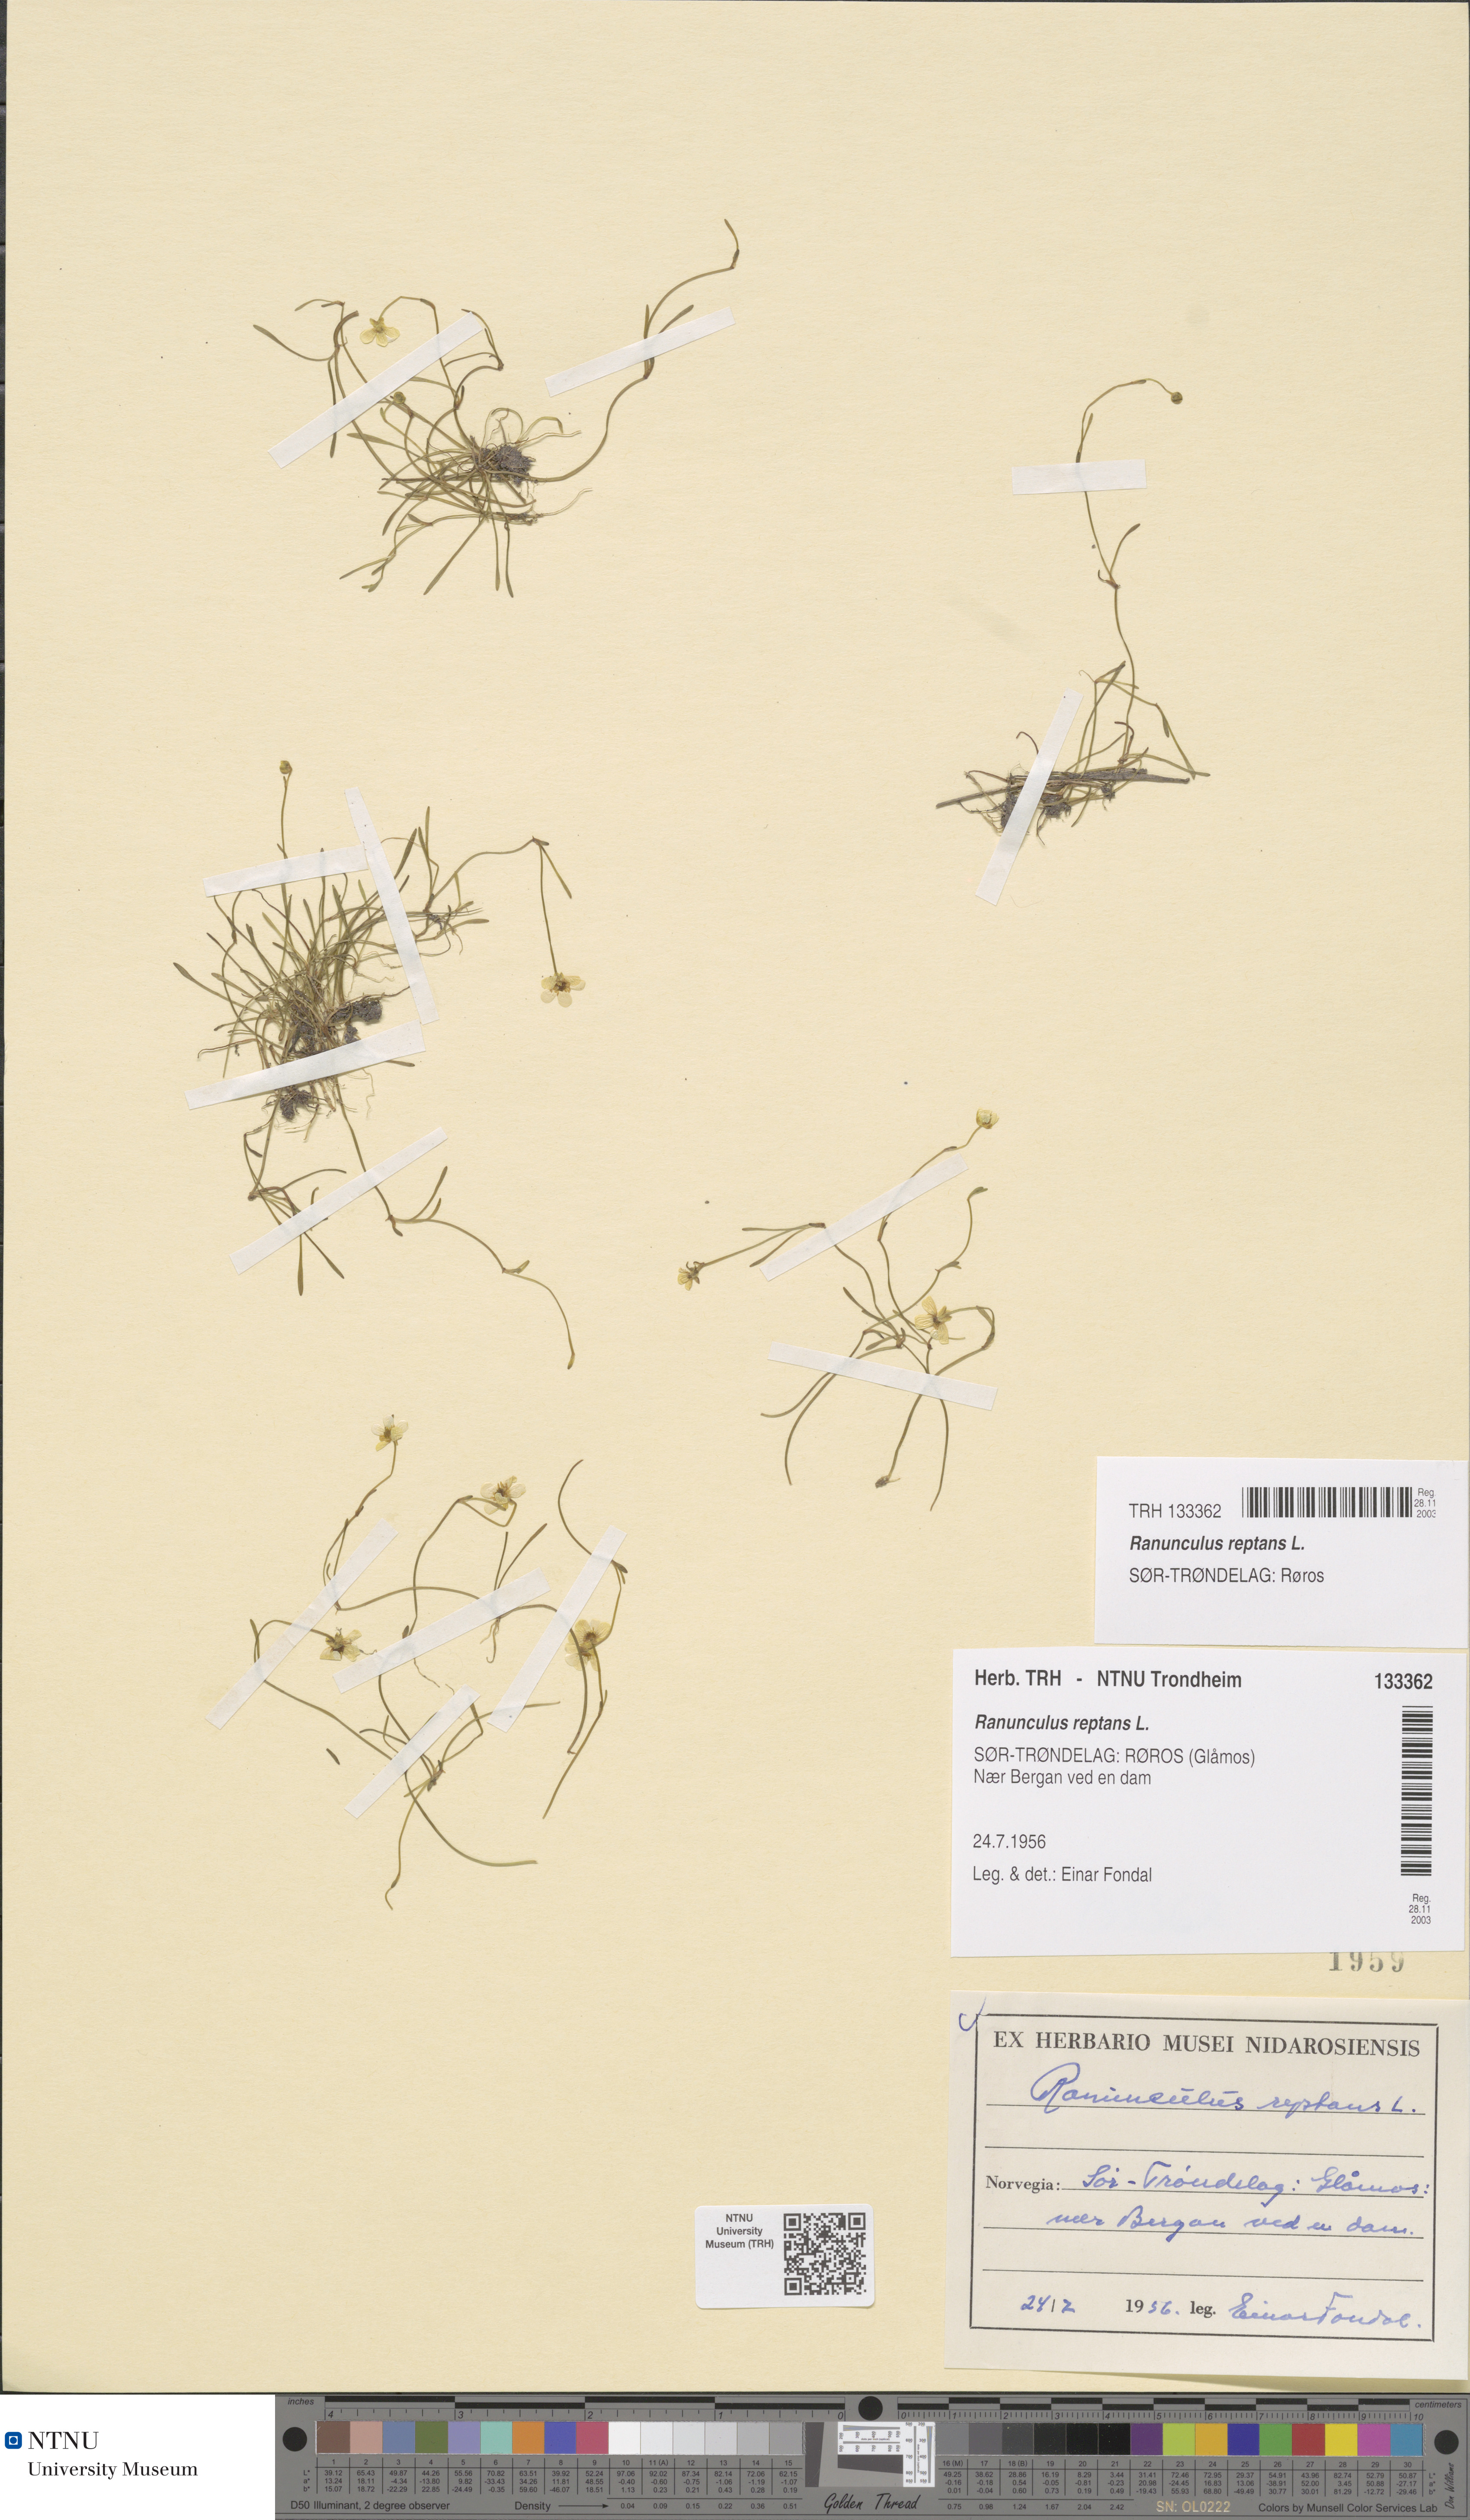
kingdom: Plantae
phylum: Tracheophyta
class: Magnoliopsida
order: Ranunculales
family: Ranunculaceae
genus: Ranunculus
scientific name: Ranunculus reptans
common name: Creeping spearwort
